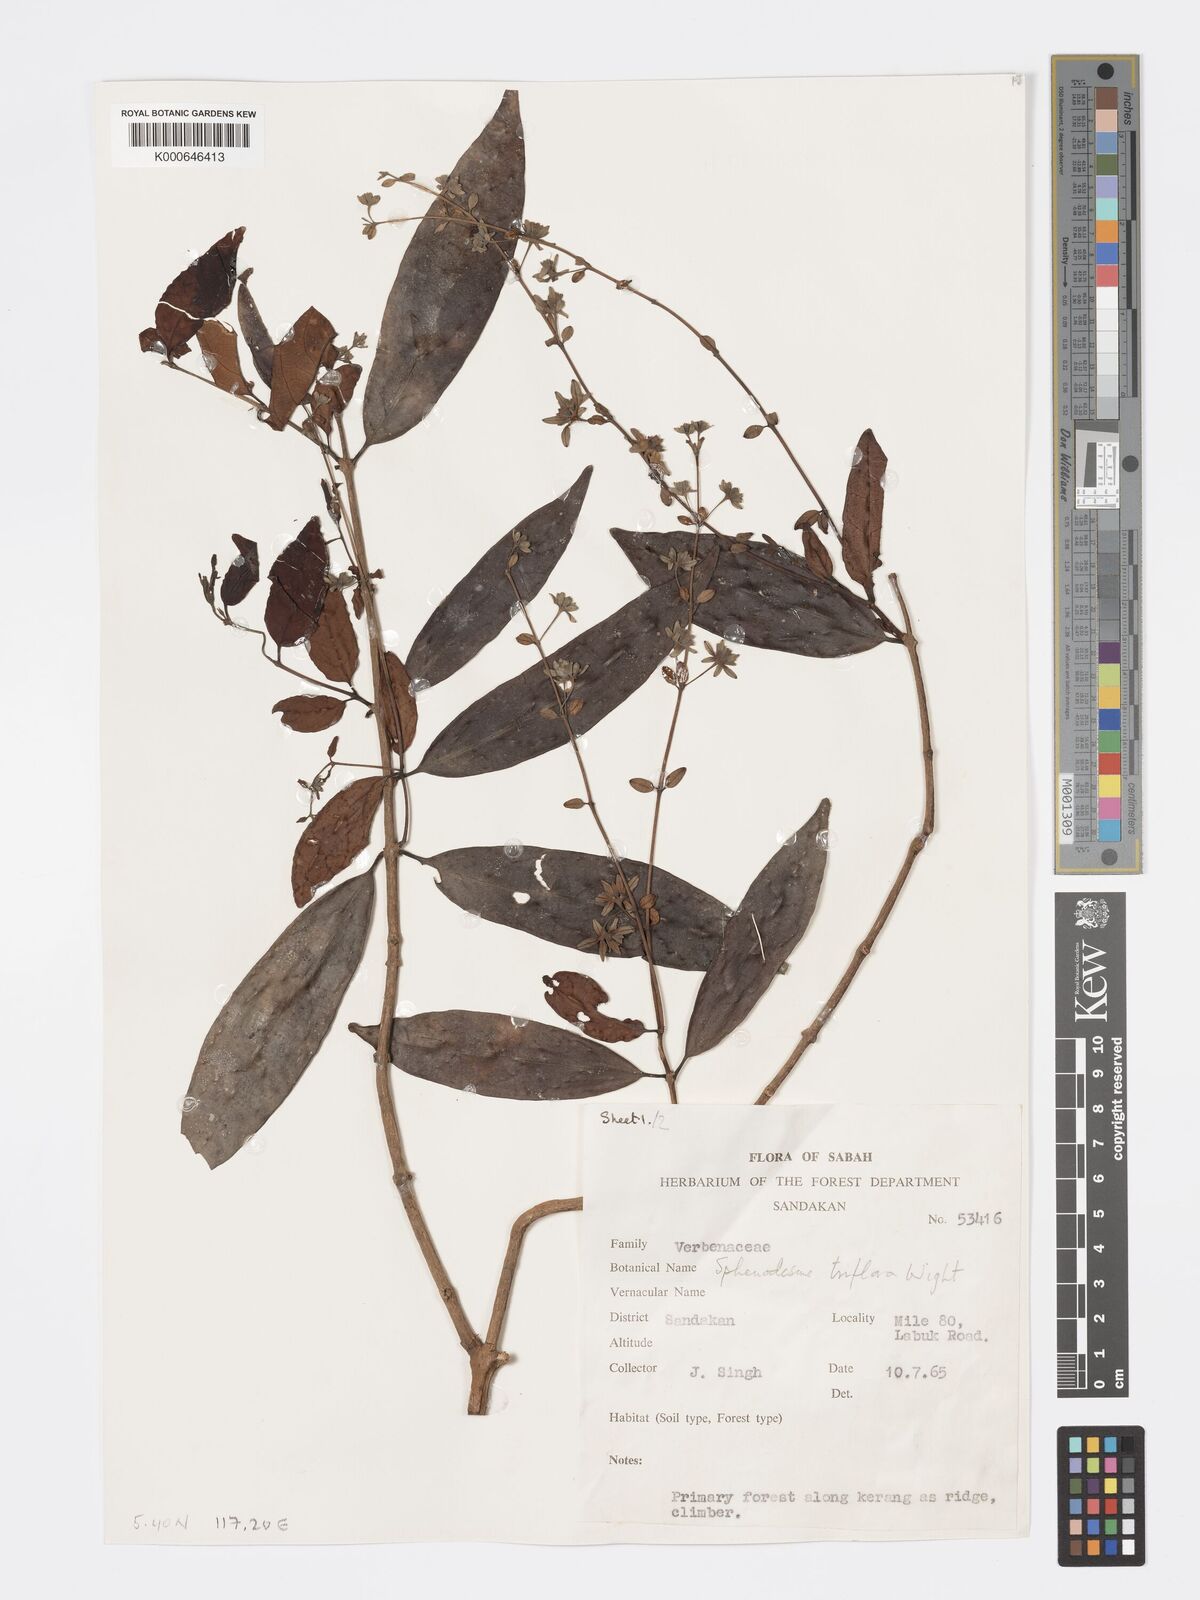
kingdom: Plantae
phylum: Tracheophyta
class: Magnoliopsida
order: Lamiales
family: Lamiaceae
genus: Sphenodesme
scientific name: Sphenodesme triflora
